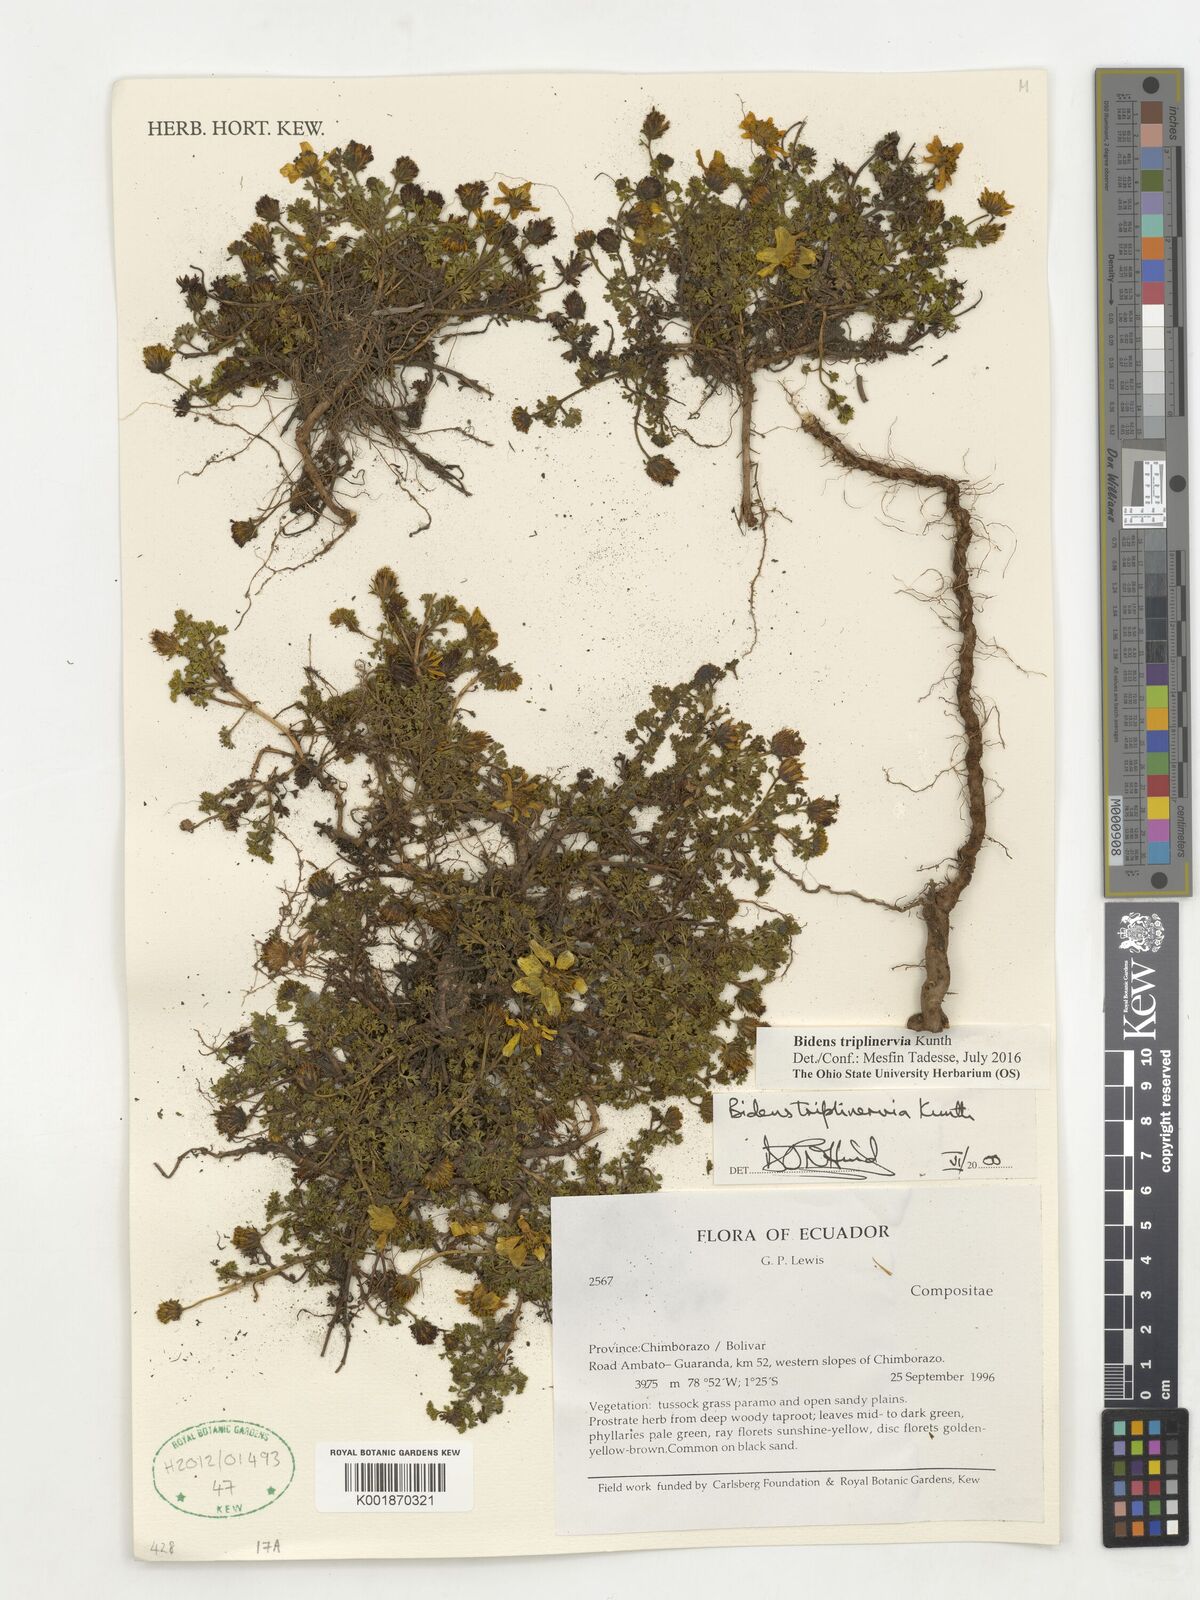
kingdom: Plantae
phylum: Tracheophyta
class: Magnoliopsida
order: Asterales
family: Asteraceae
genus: Bidens
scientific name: Bidens triplinervia
